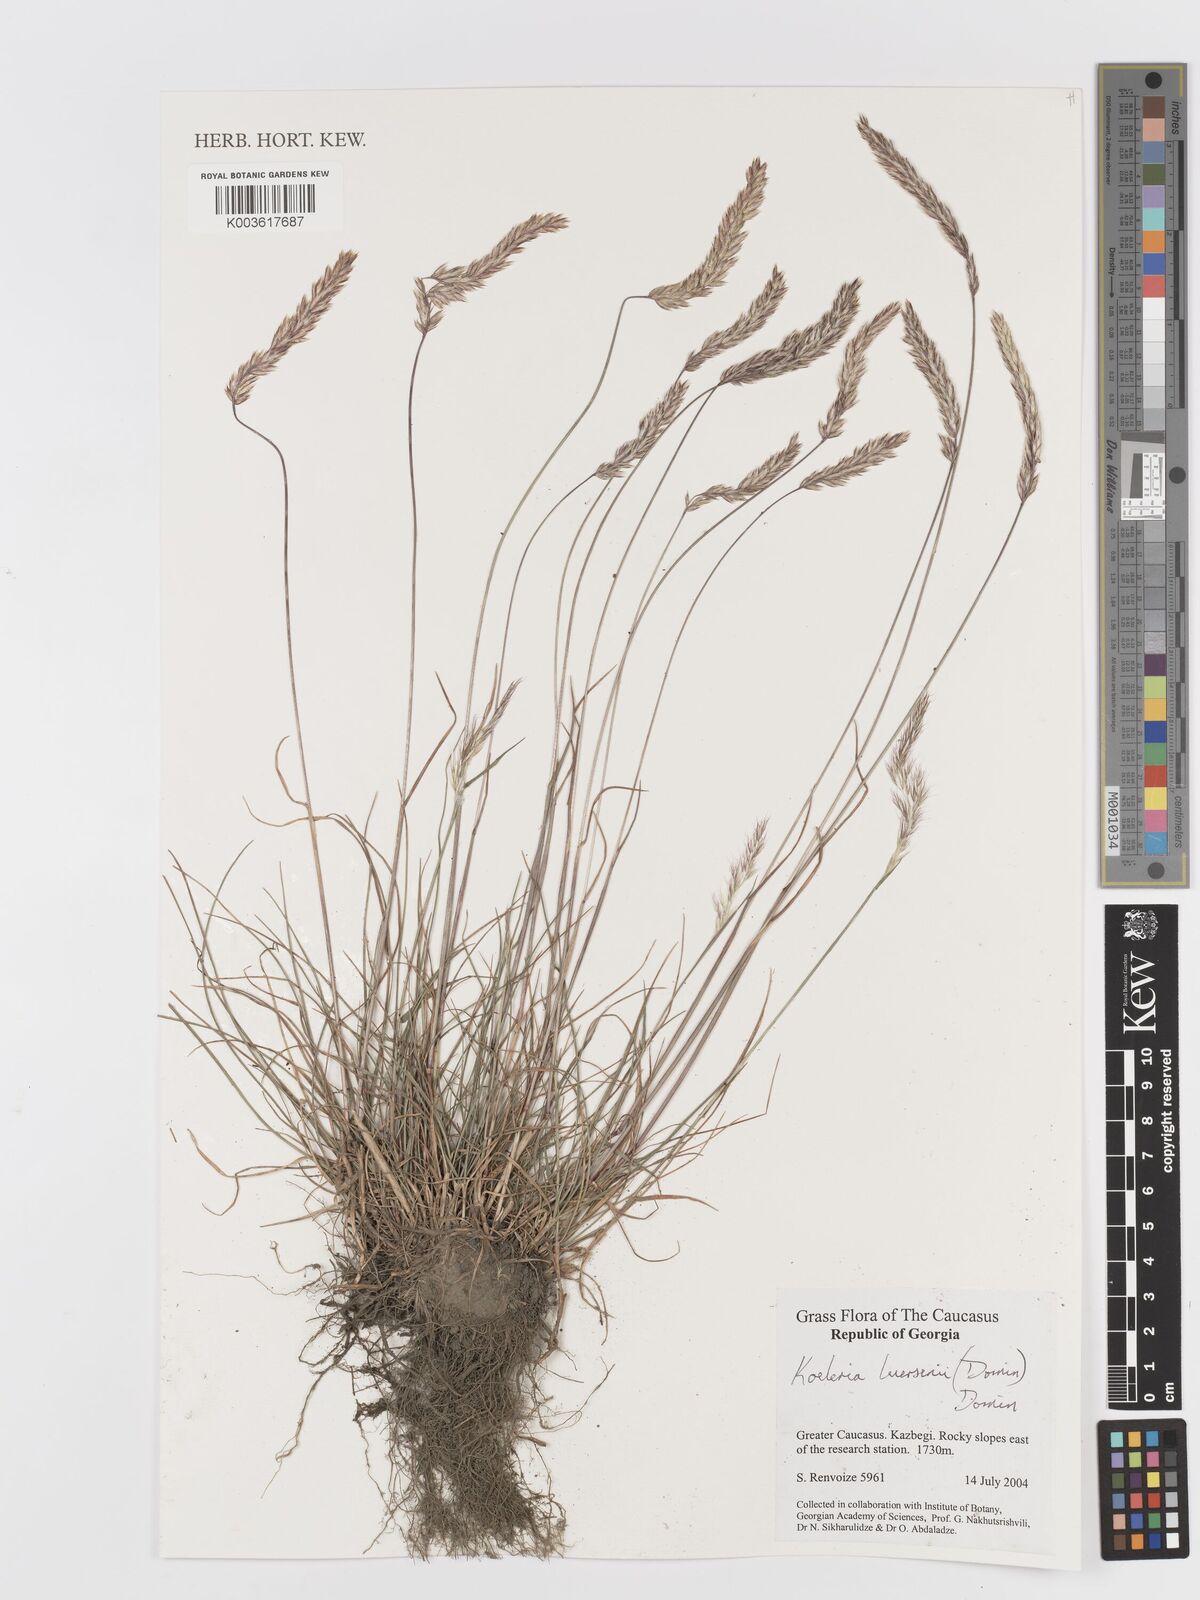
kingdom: Plantae
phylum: Tracheophyta
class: Liliopsida
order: Poales
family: Poaceae
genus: Koeleria
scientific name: Koeleria luerssenii
